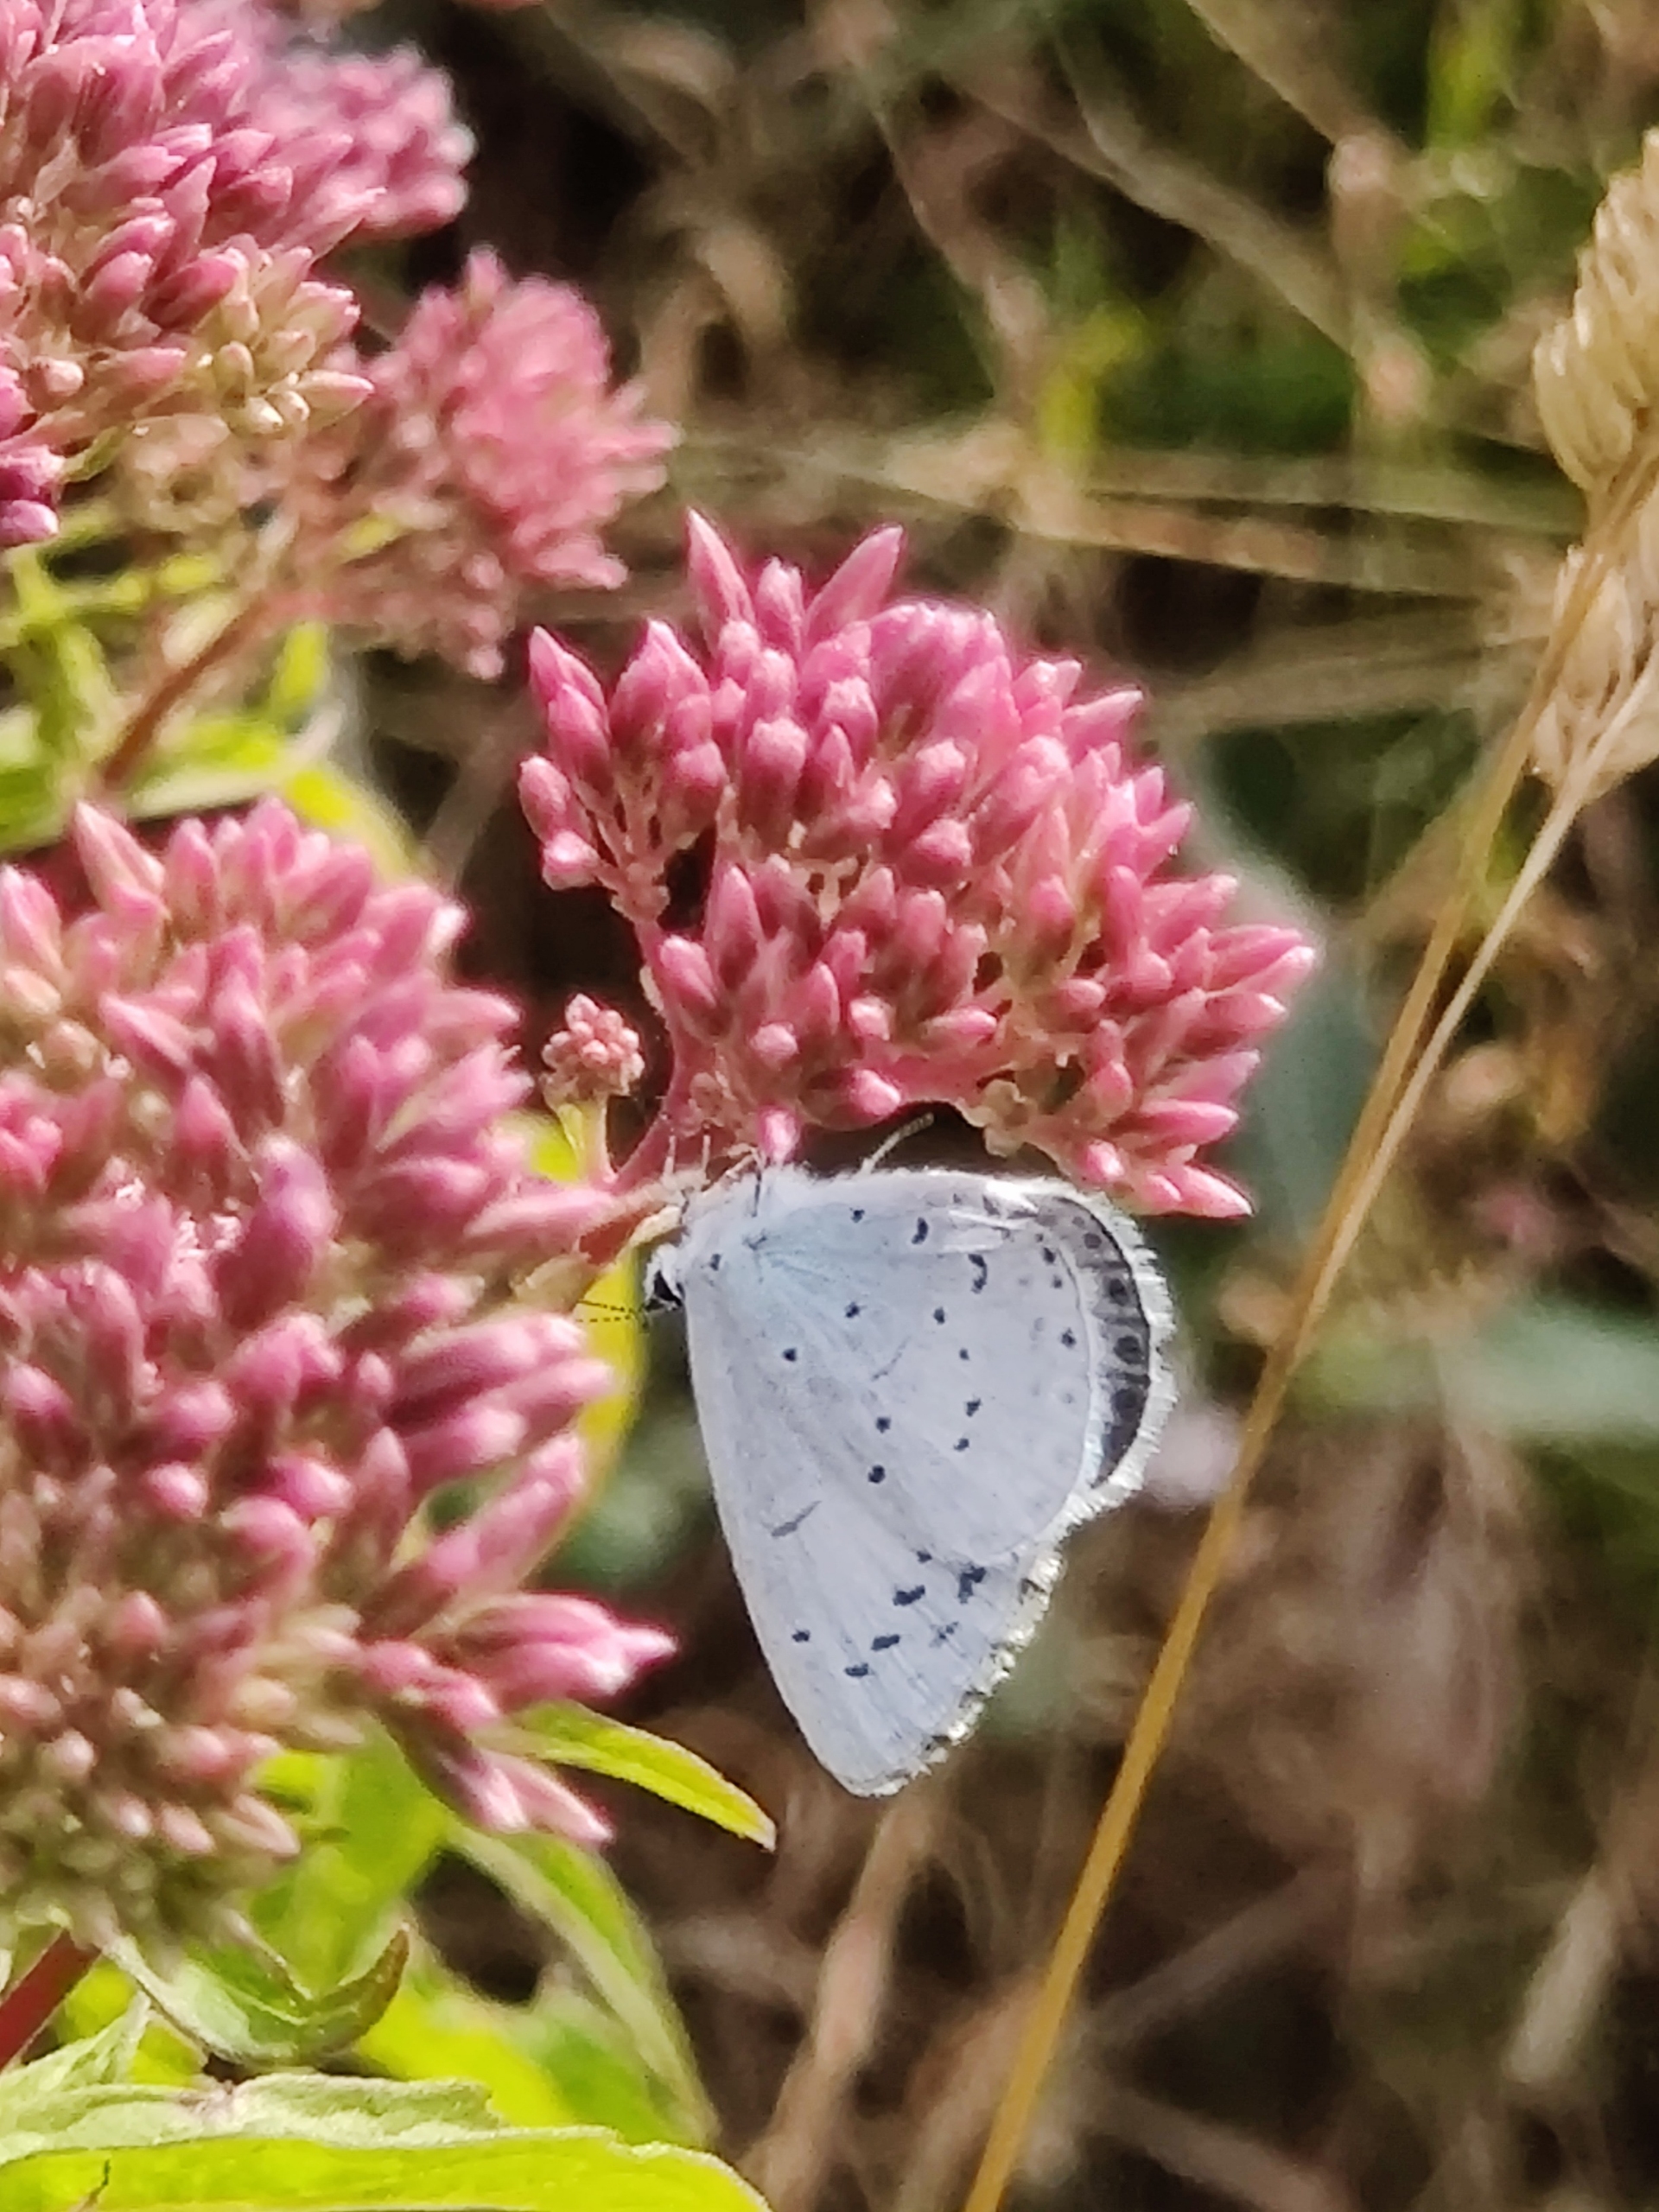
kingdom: Animalia
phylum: Arthropoda
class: Insecta
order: Lepidoptera
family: Lycaenidae
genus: Celastrina
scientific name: Celastrina argiolus
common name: Skovblåfugl
